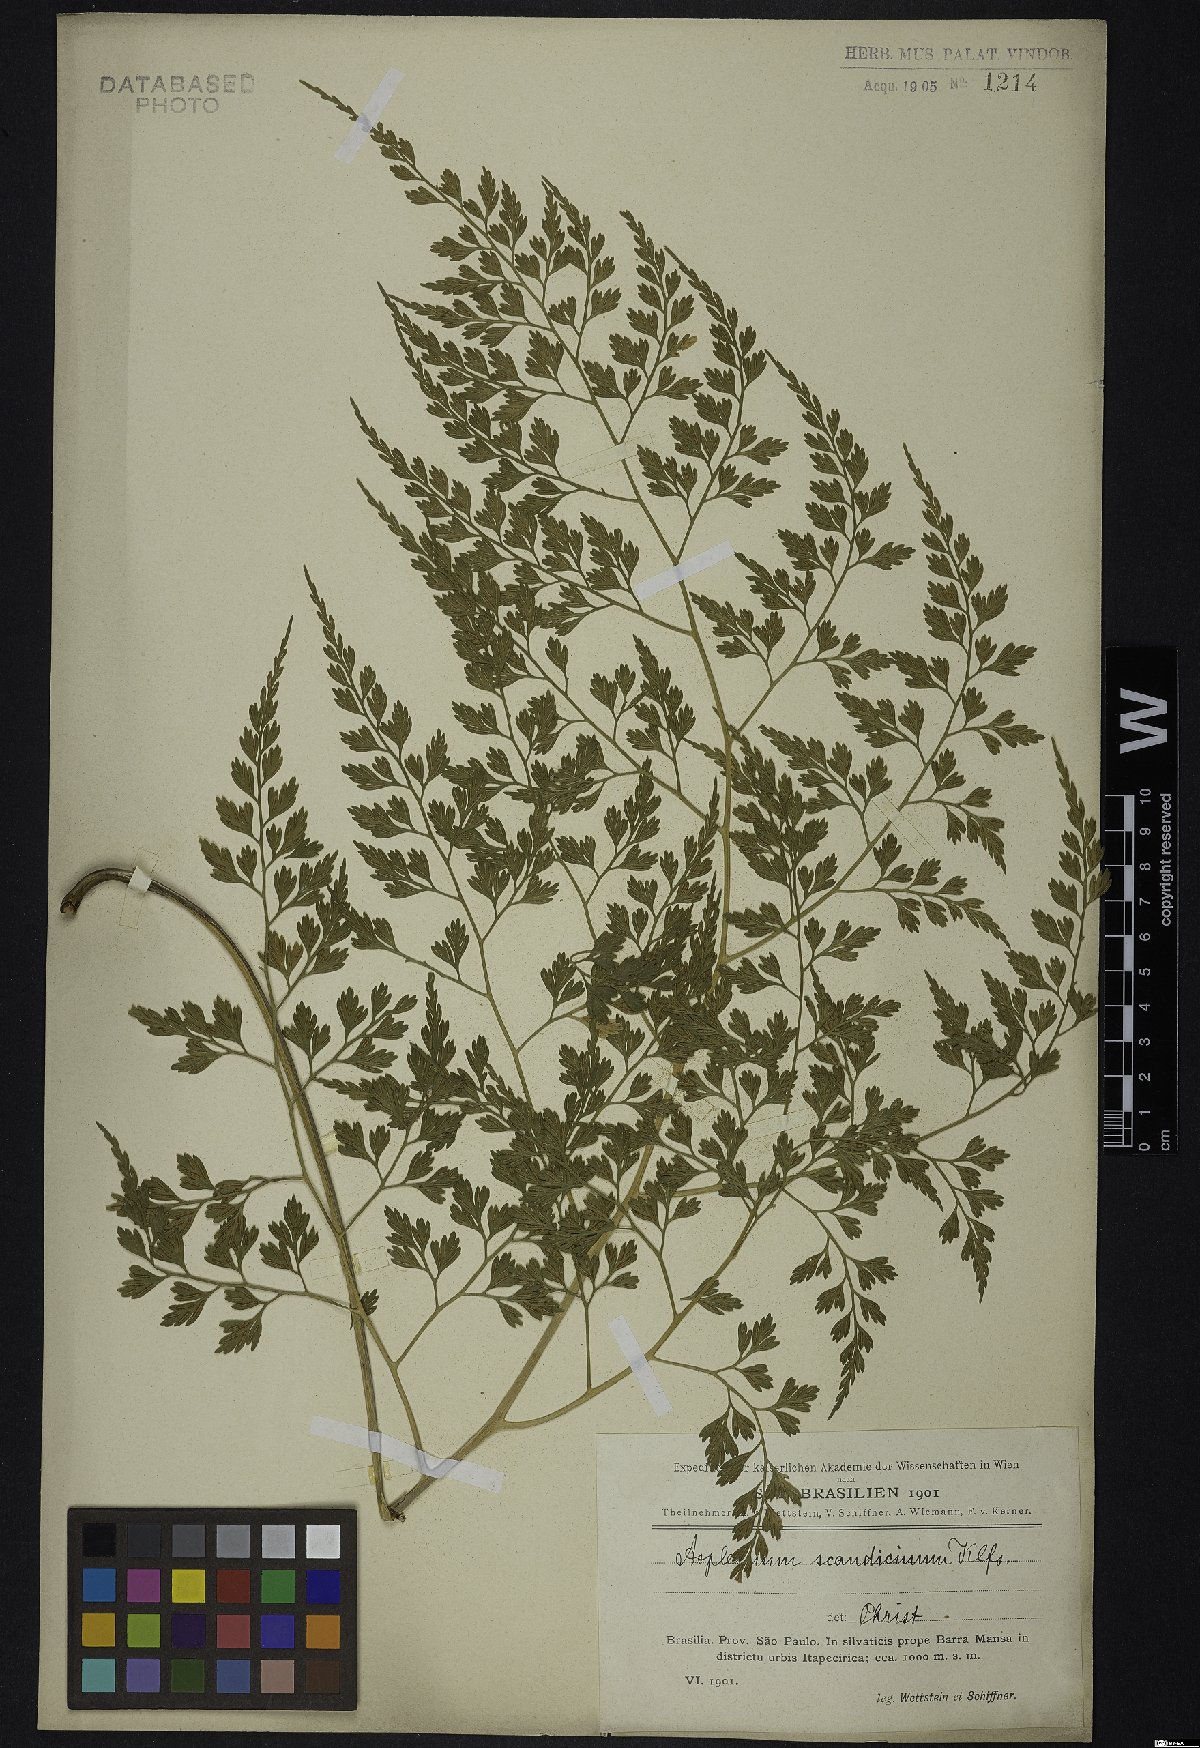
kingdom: Plantae
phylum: Tracheophyta
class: Polypodiopsida
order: Polypodiales
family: Aspleniaceae
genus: Asplenium
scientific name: Asplenium scandicinum
